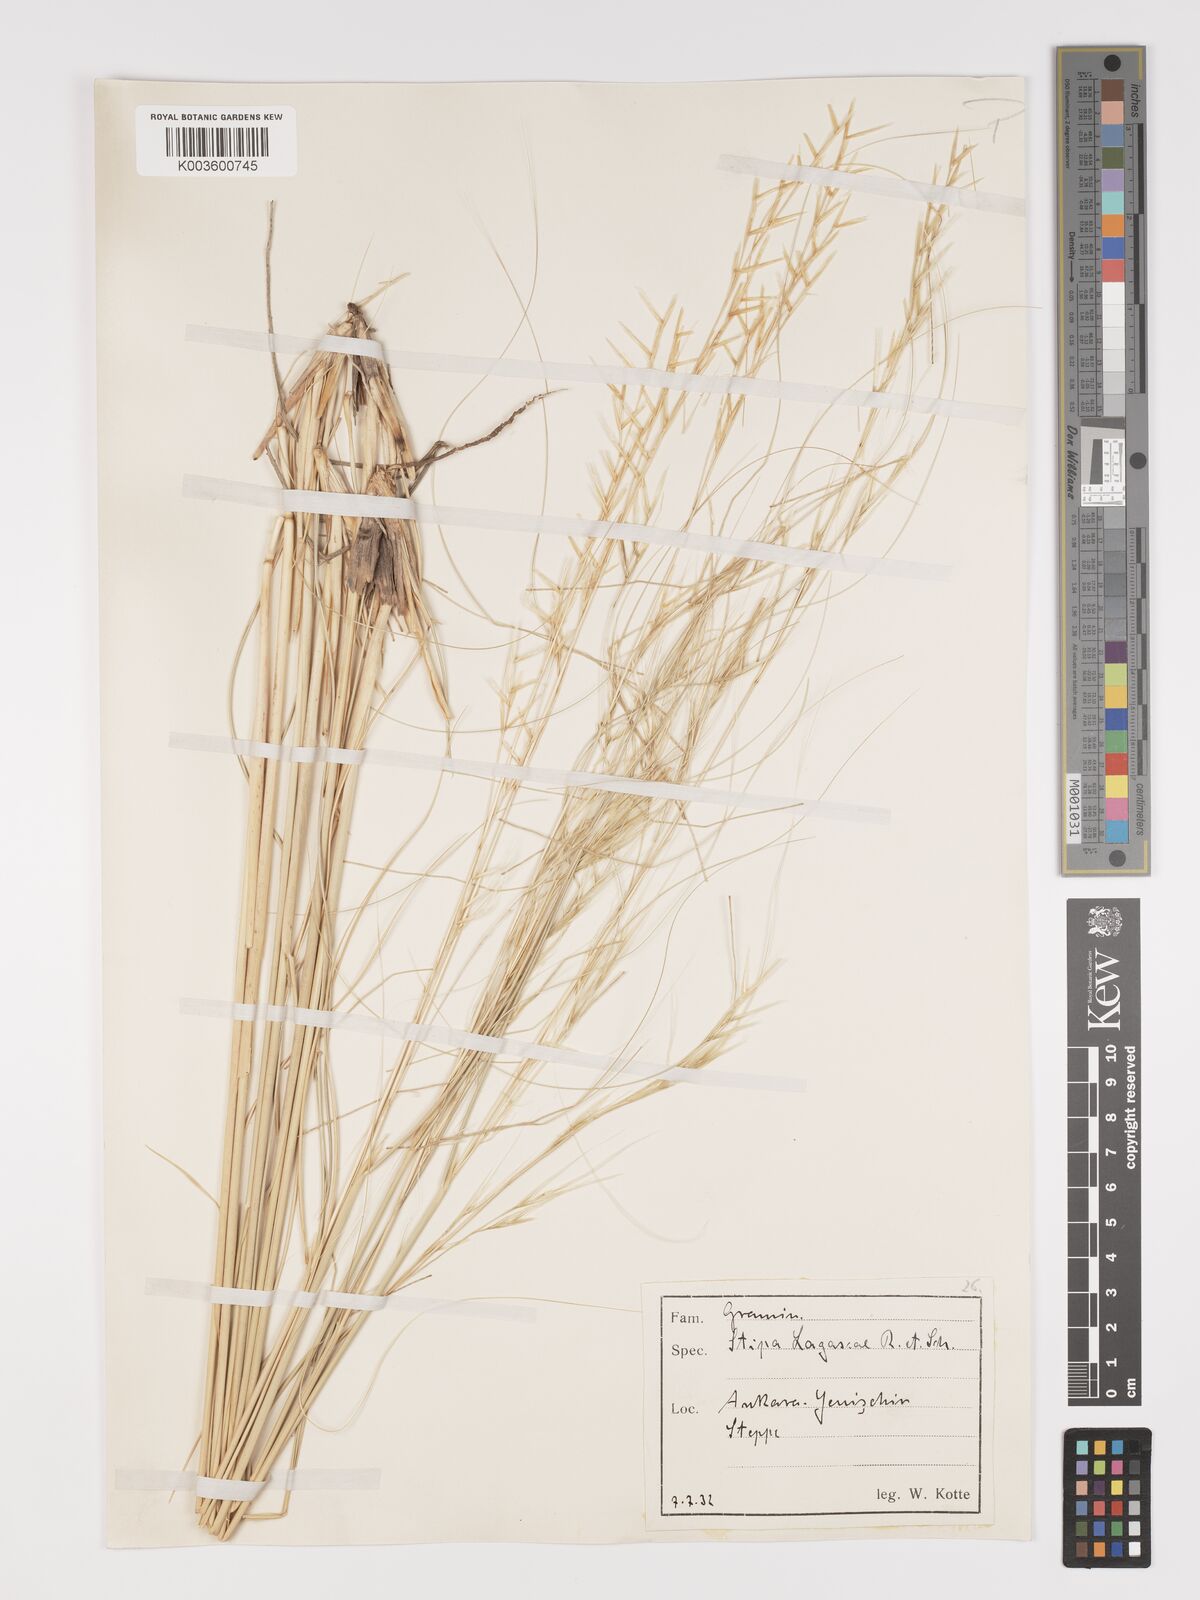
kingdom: Plantae
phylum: Tracheophyta
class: Liliopsida
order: Poales
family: Poaceae
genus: Stipa
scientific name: Stipa lagascae
